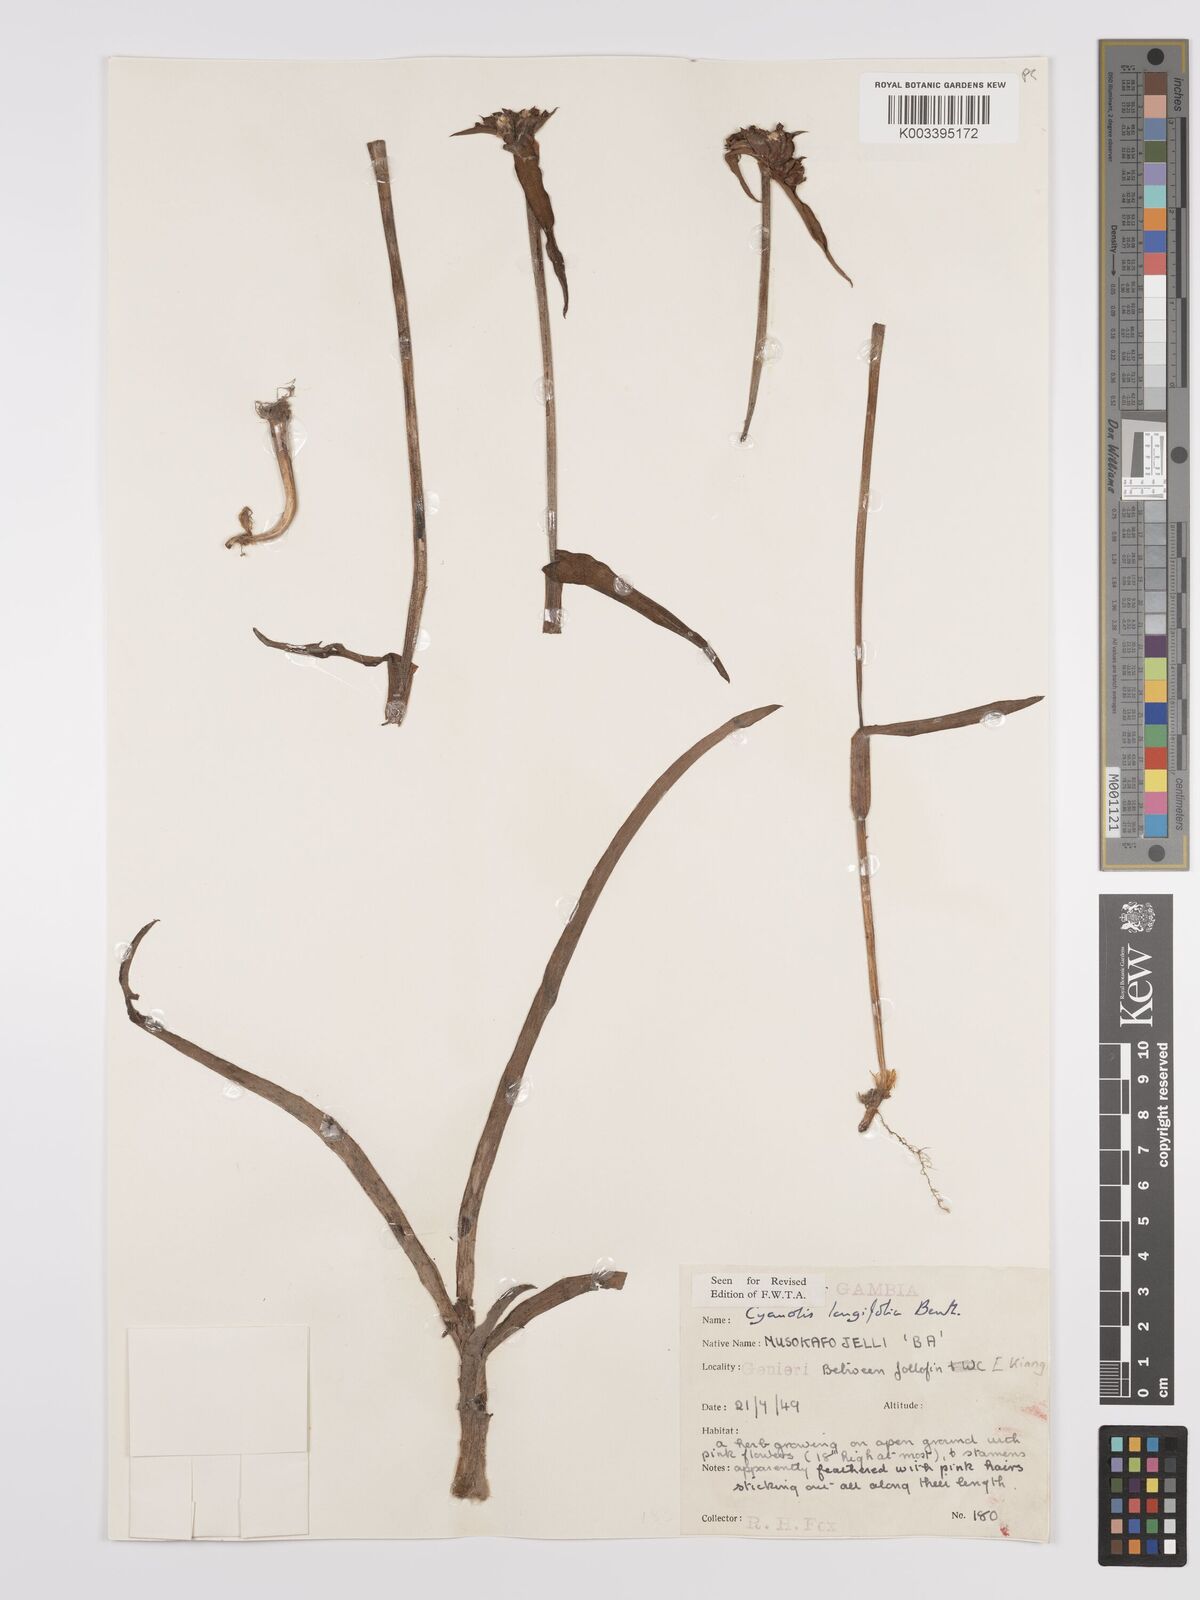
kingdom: Plantae
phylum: Tracheophyta
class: Liliopsida
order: Commelinales
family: Commelinaceae
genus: Cyanotis
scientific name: Cyanotis
